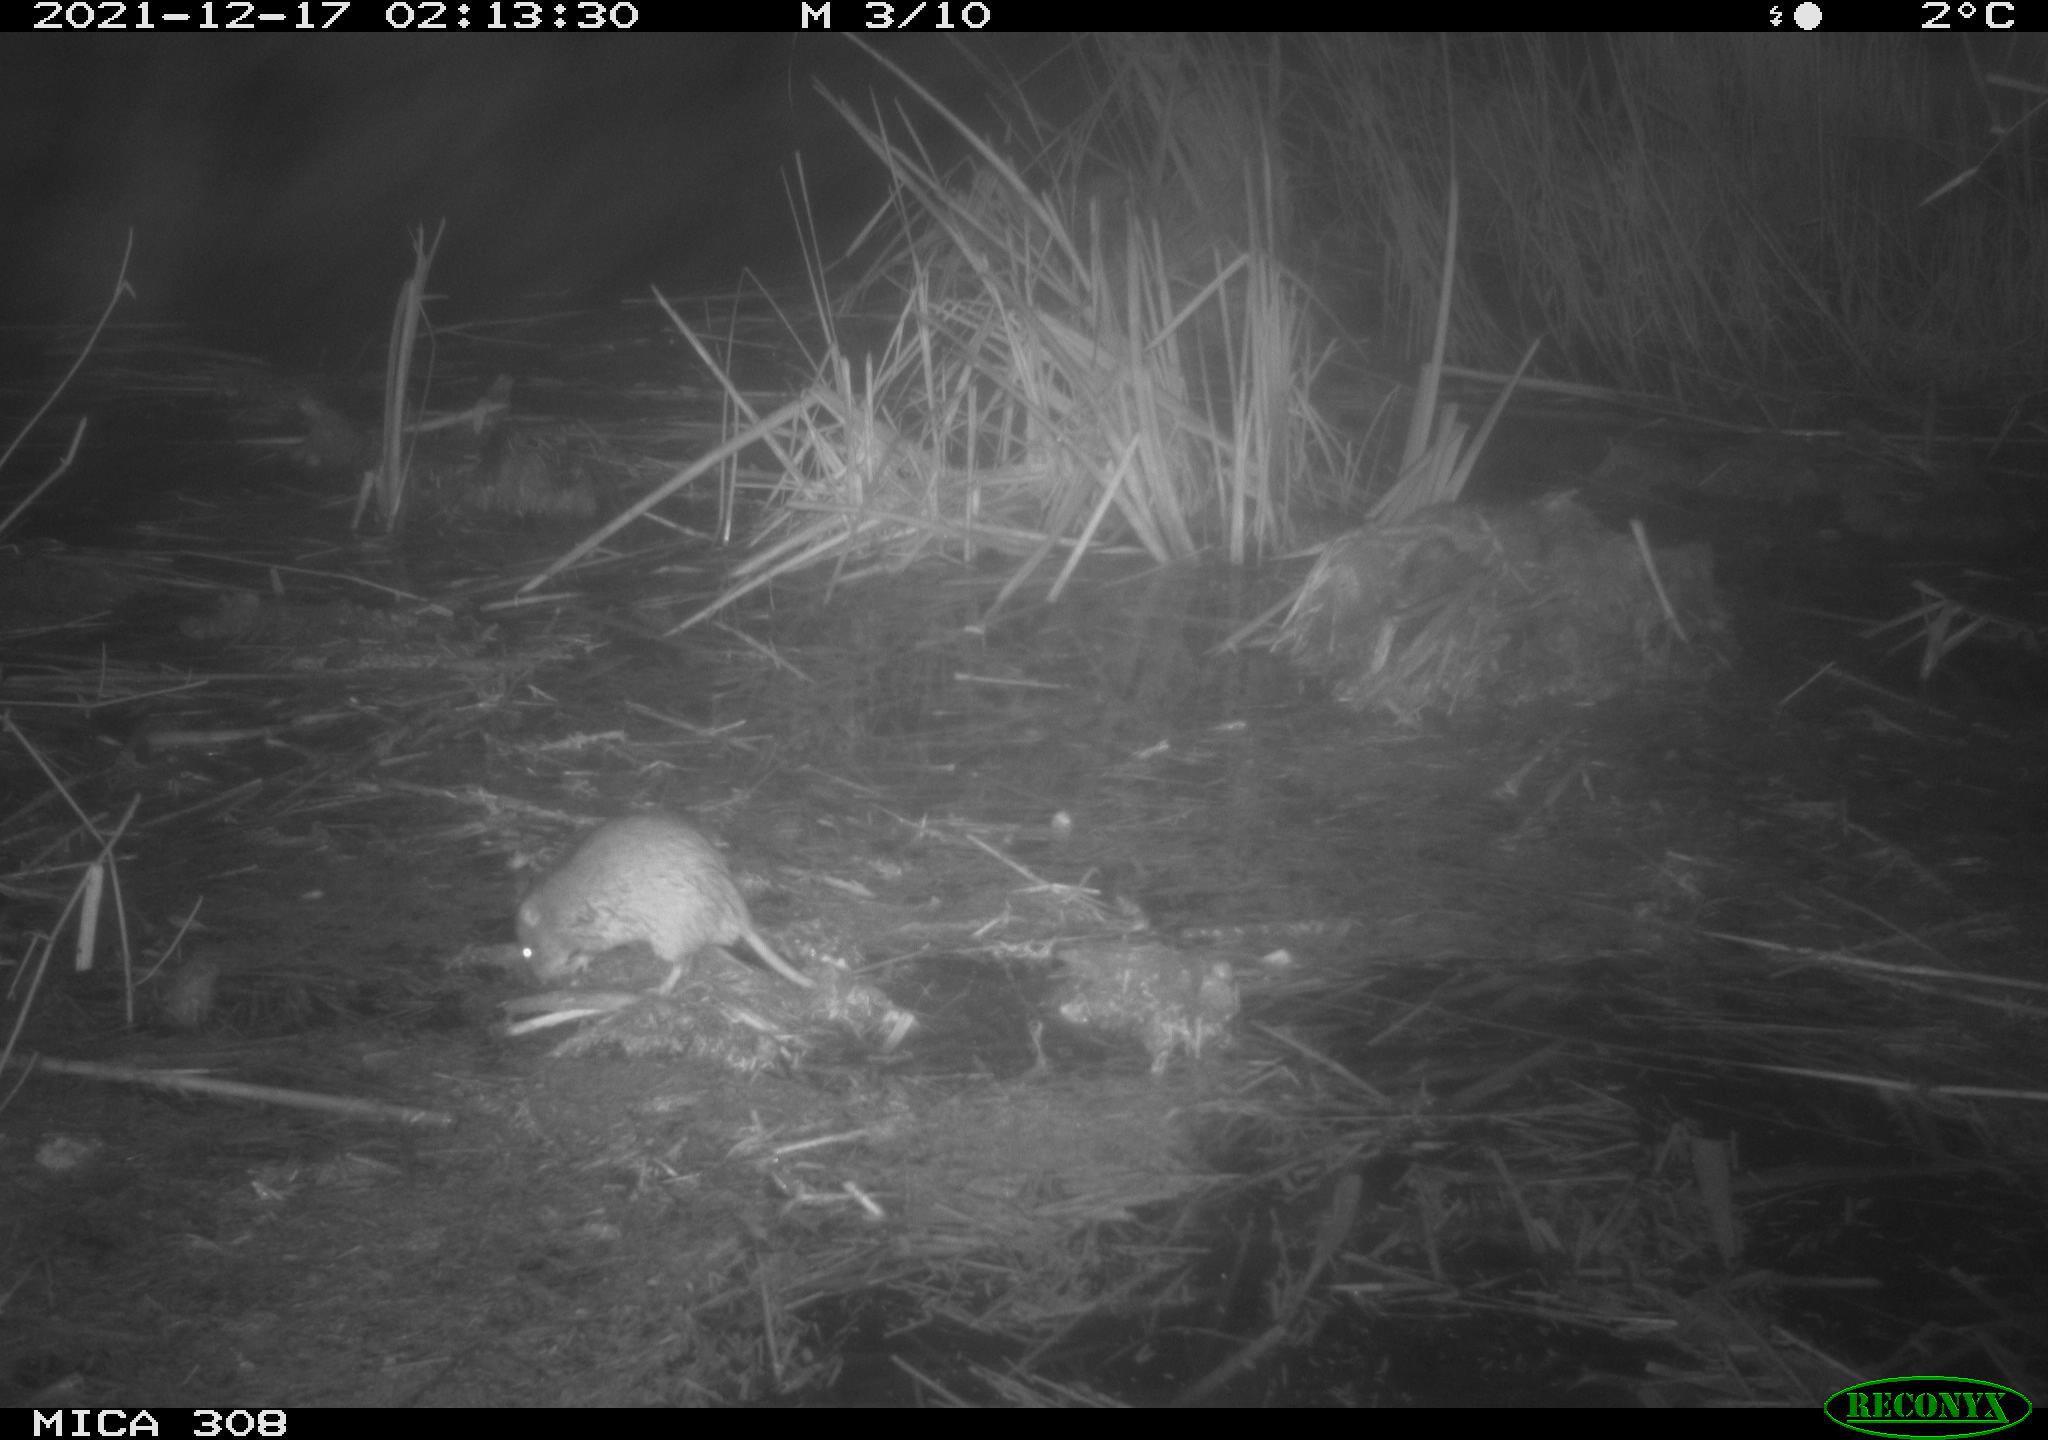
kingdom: Animalia
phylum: Chordata
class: Mammalia
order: Rodentia
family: Muridae
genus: Rattus
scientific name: Rattus norvegicus
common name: Brown rat
